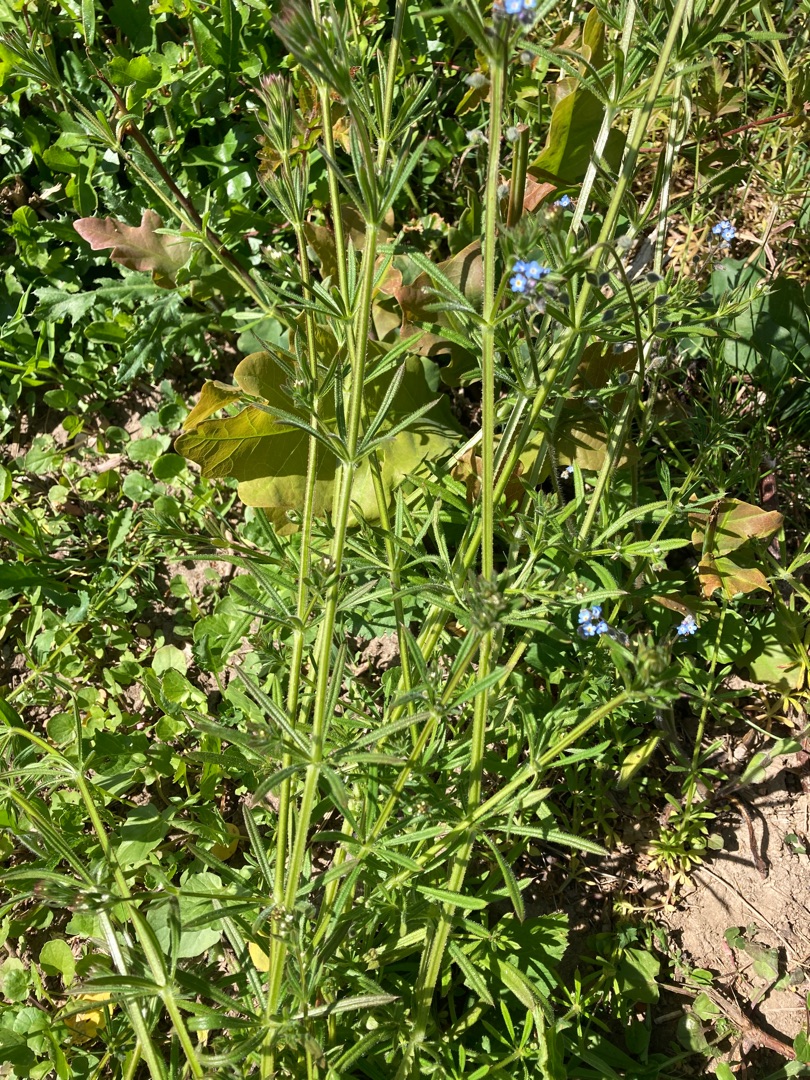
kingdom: Plantae
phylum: Tracheophyta
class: Magnoliopsida
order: Gentianales
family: Rubiaceae
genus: Galium
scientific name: Galium aparine
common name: Burre-snerre
